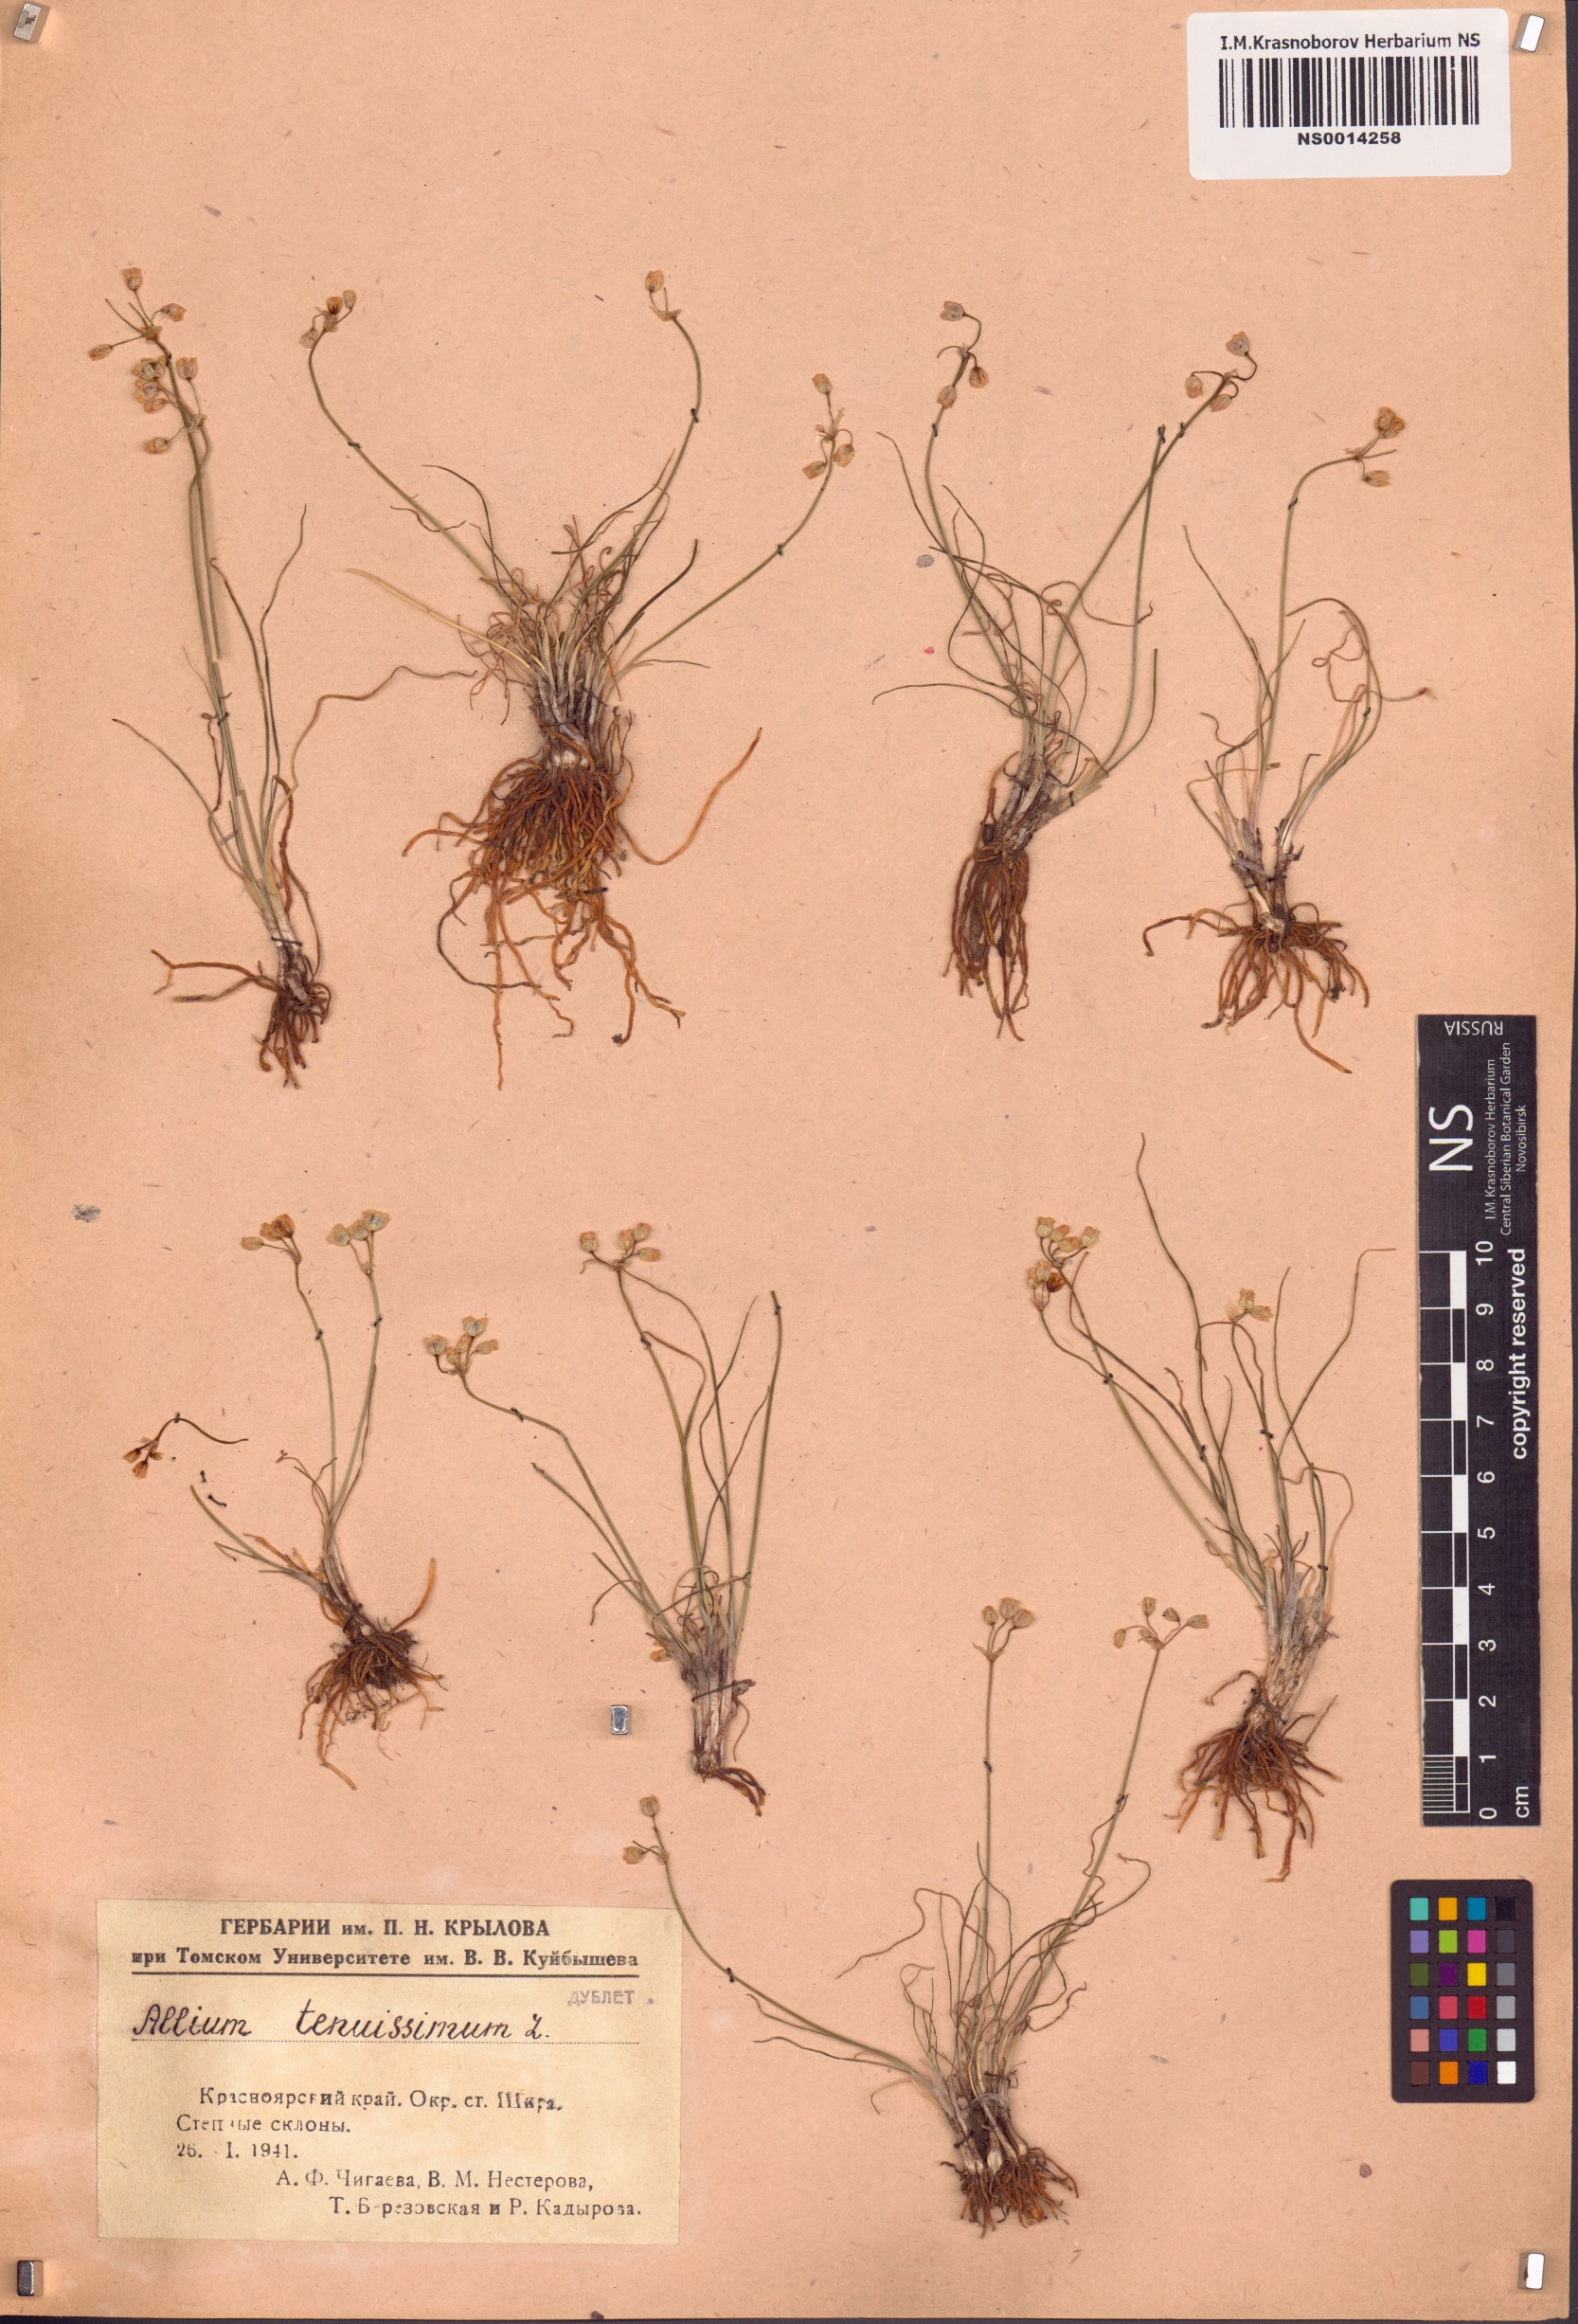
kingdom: Plantae
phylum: Tracheophyta
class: Liliopsida
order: Asparagales
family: Amaryllidaceae
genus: Allium
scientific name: Allium tenuissimum
